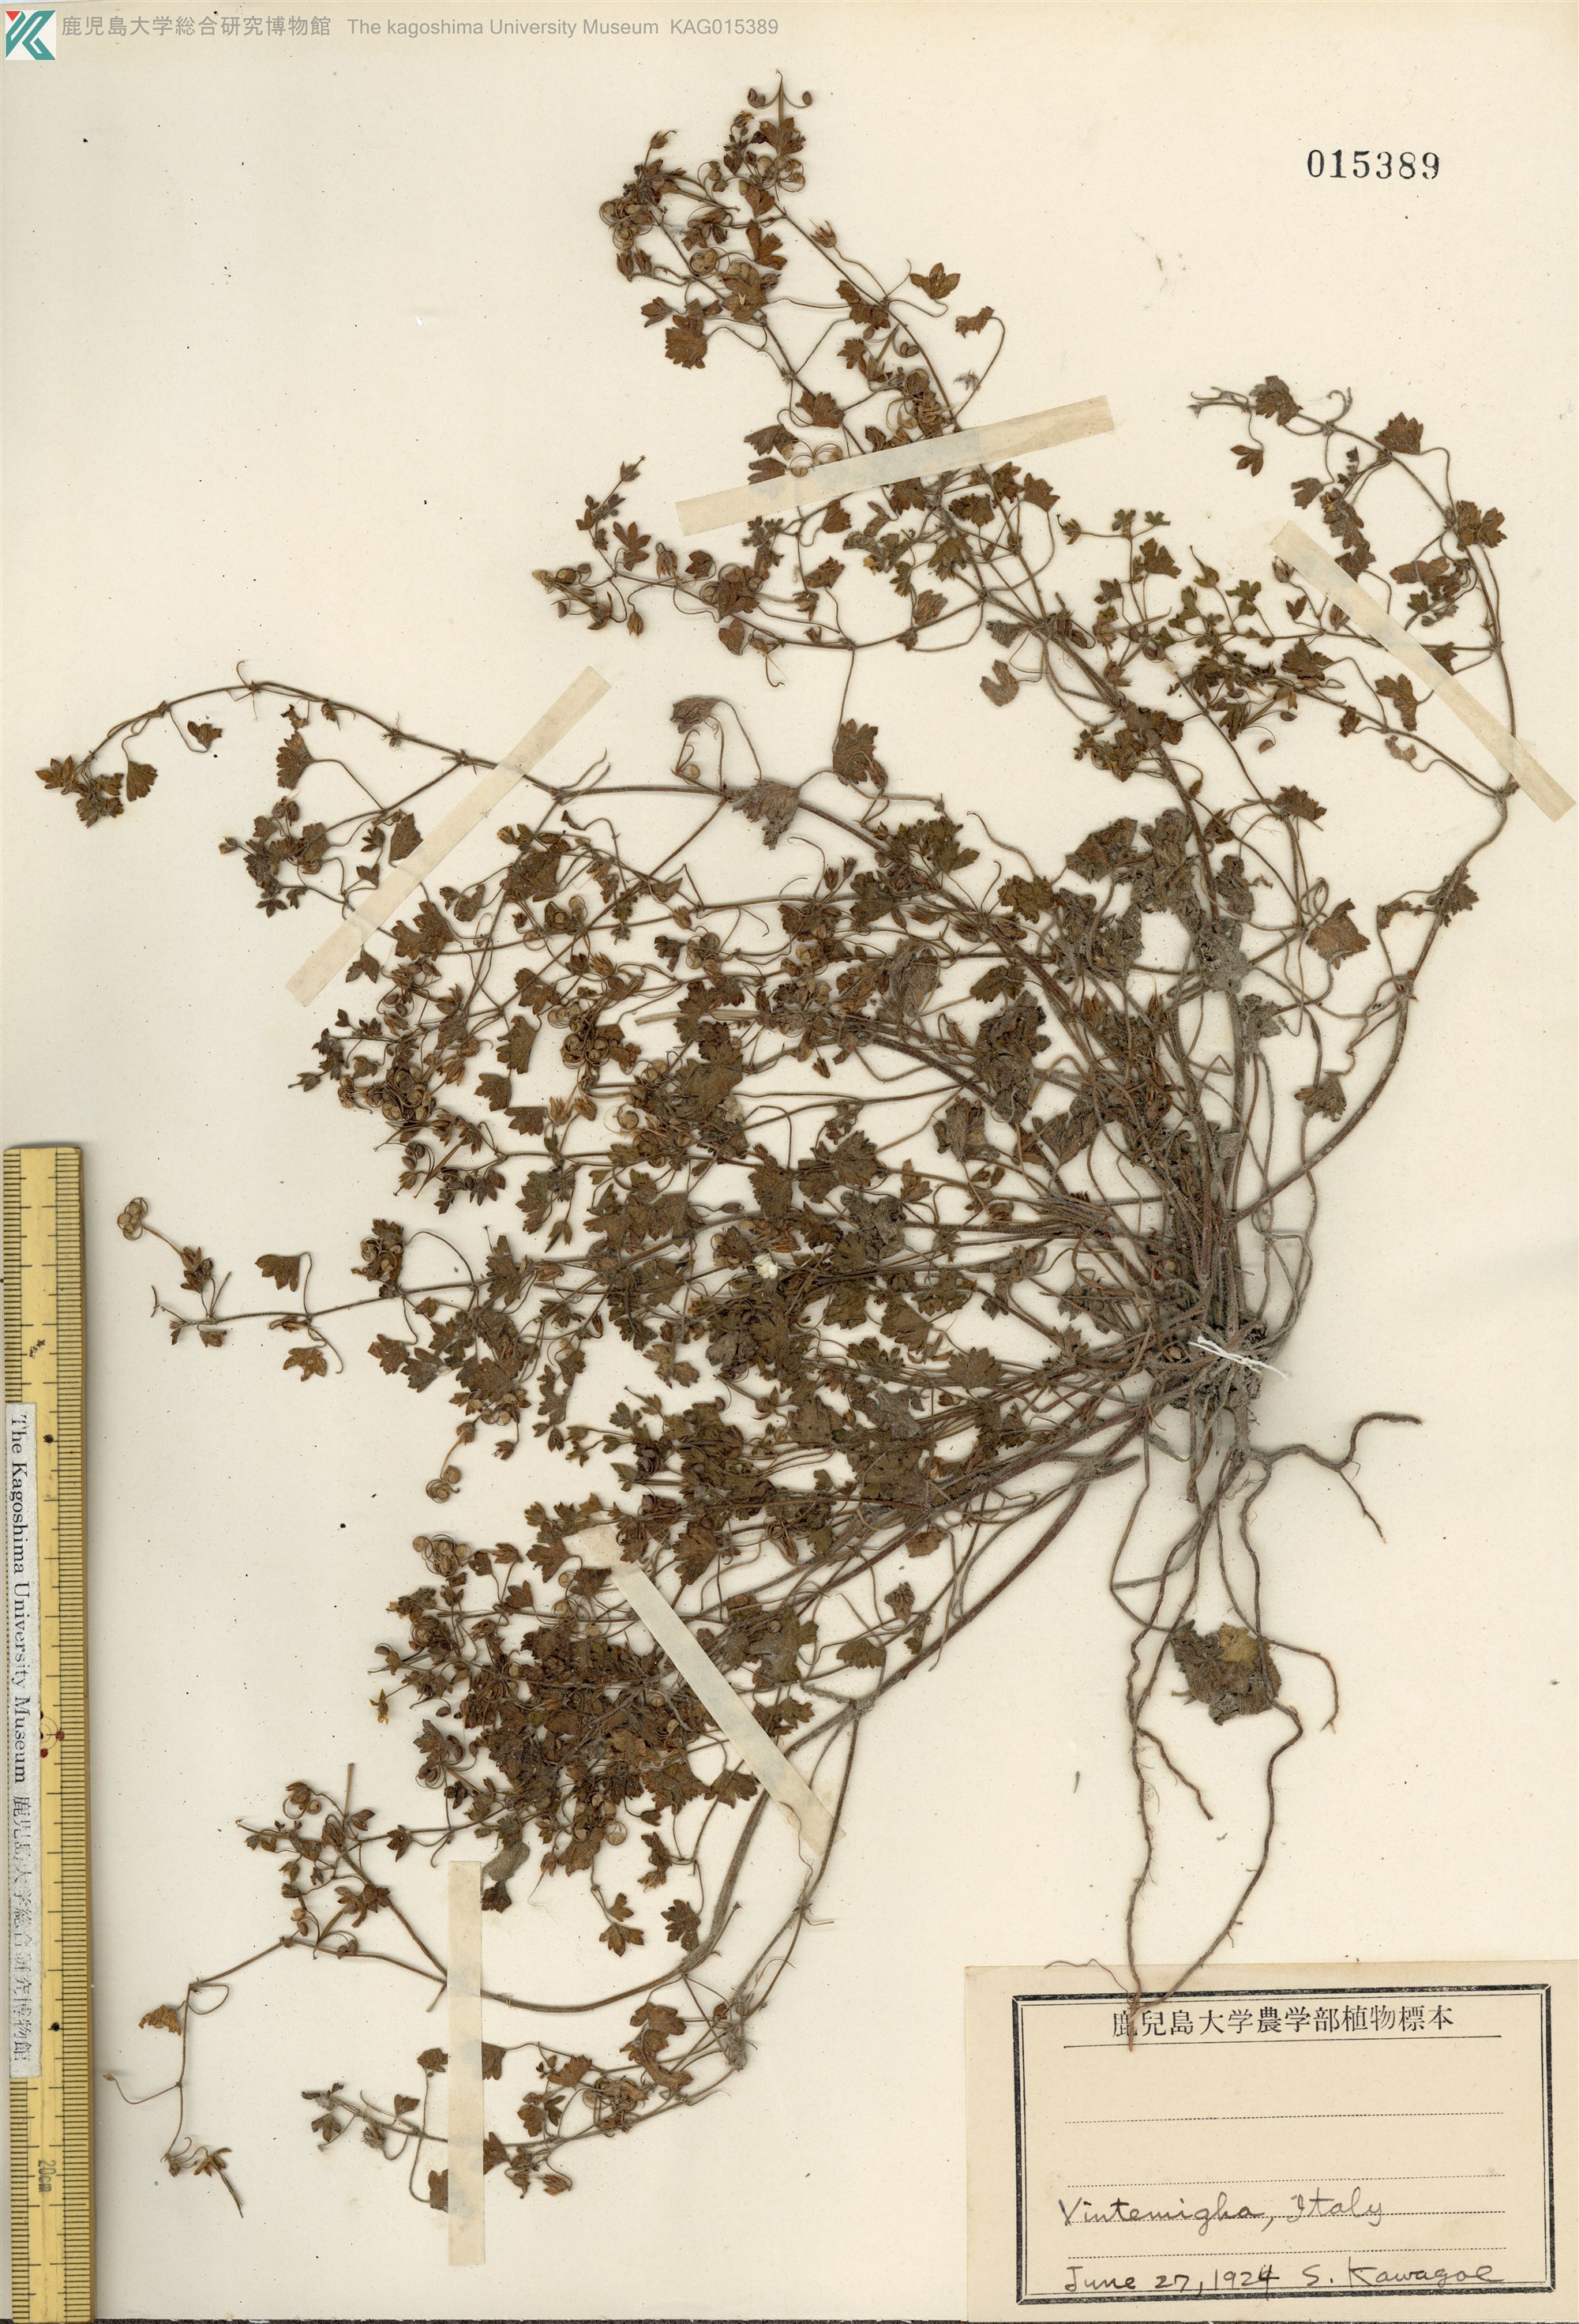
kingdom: Plantae
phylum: Tracheophyta
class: Magnoliopsida
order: Geraniales
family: Geraniaceae
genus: Geranium
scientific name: Geranium molle
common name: Dove's-foot crane's-bill
